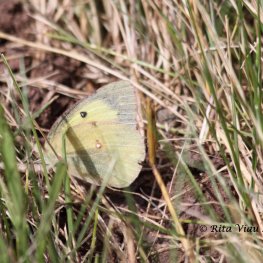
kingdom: Animalia
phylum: Arthropoda
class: Insecta
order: Lepidoptera
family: Pieridae
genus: Colias
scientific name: Colias eurytheme
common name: Orange Sulphur
